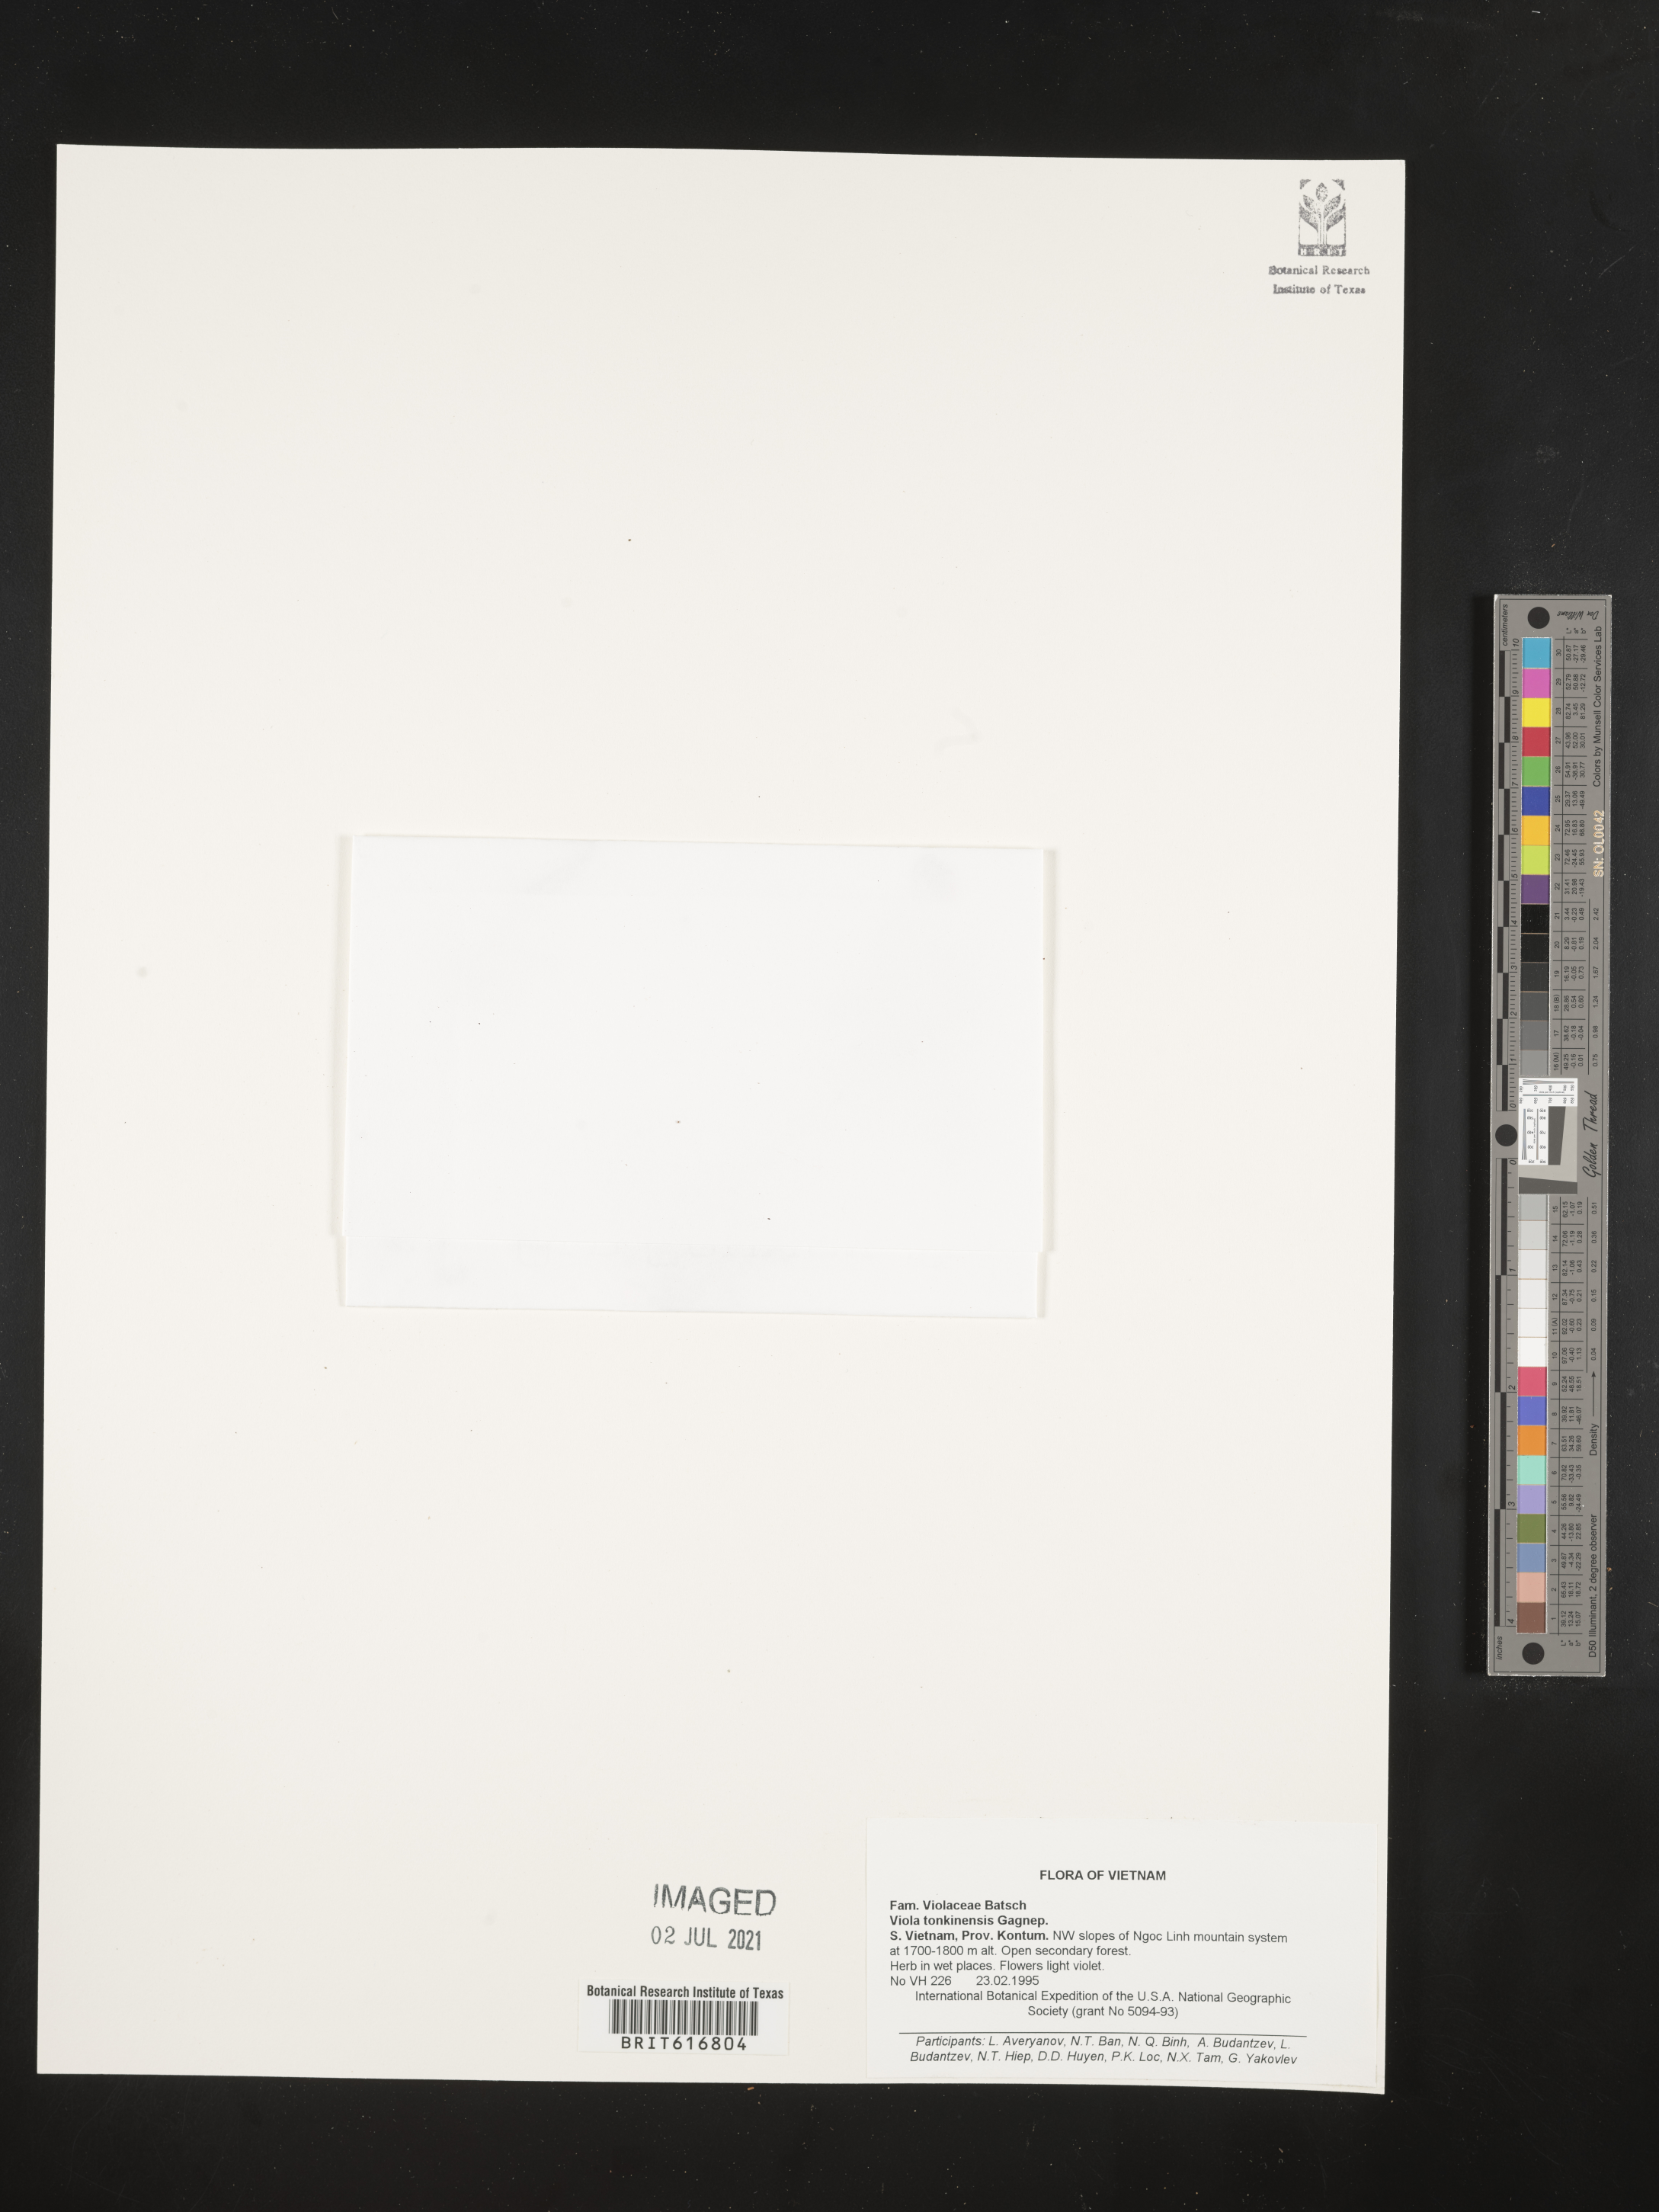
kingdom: Plantae
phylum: Tracheophyta
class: Magnoliopsida
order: Malpighiales
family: Violaceae
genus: Viola
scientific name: Viola tonkinensis
